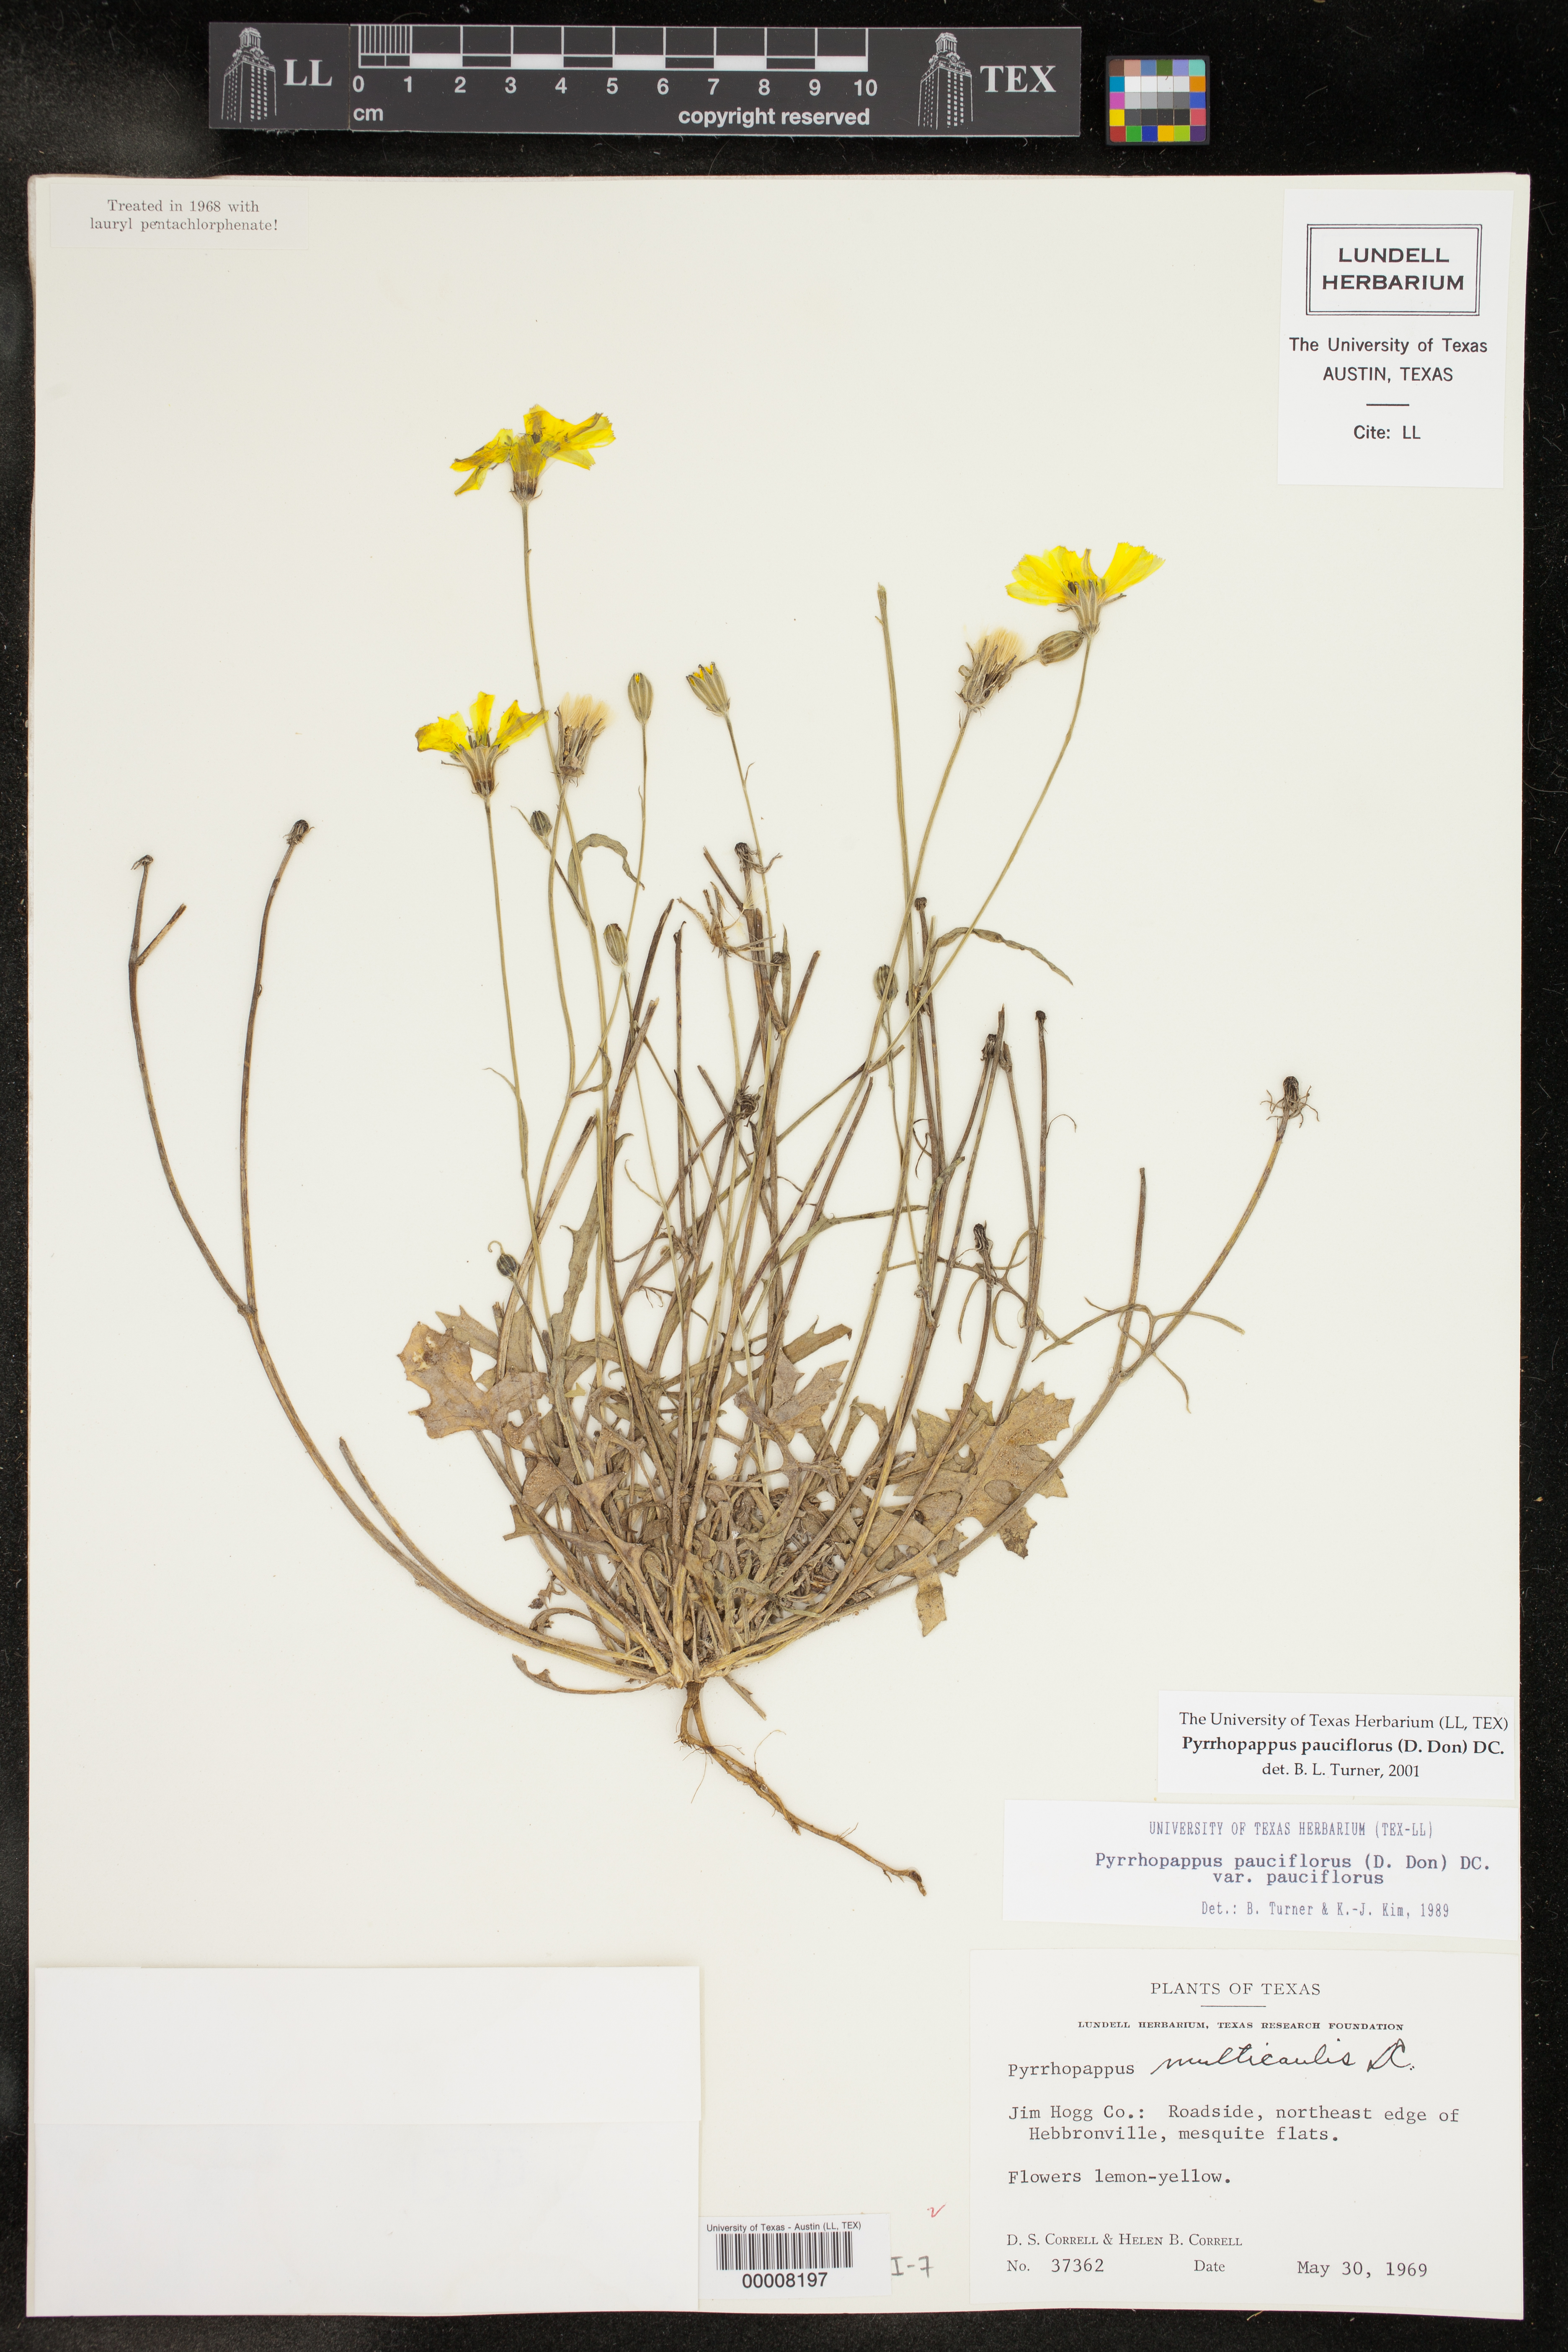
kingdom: Plantae
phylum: Tracheophyta
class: Magnoliopsida
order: Asterales
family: Asteraceae
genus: Pyrrhopappus
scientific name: Pyrrhopappus pauciflorus
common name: Texas false dandelion
